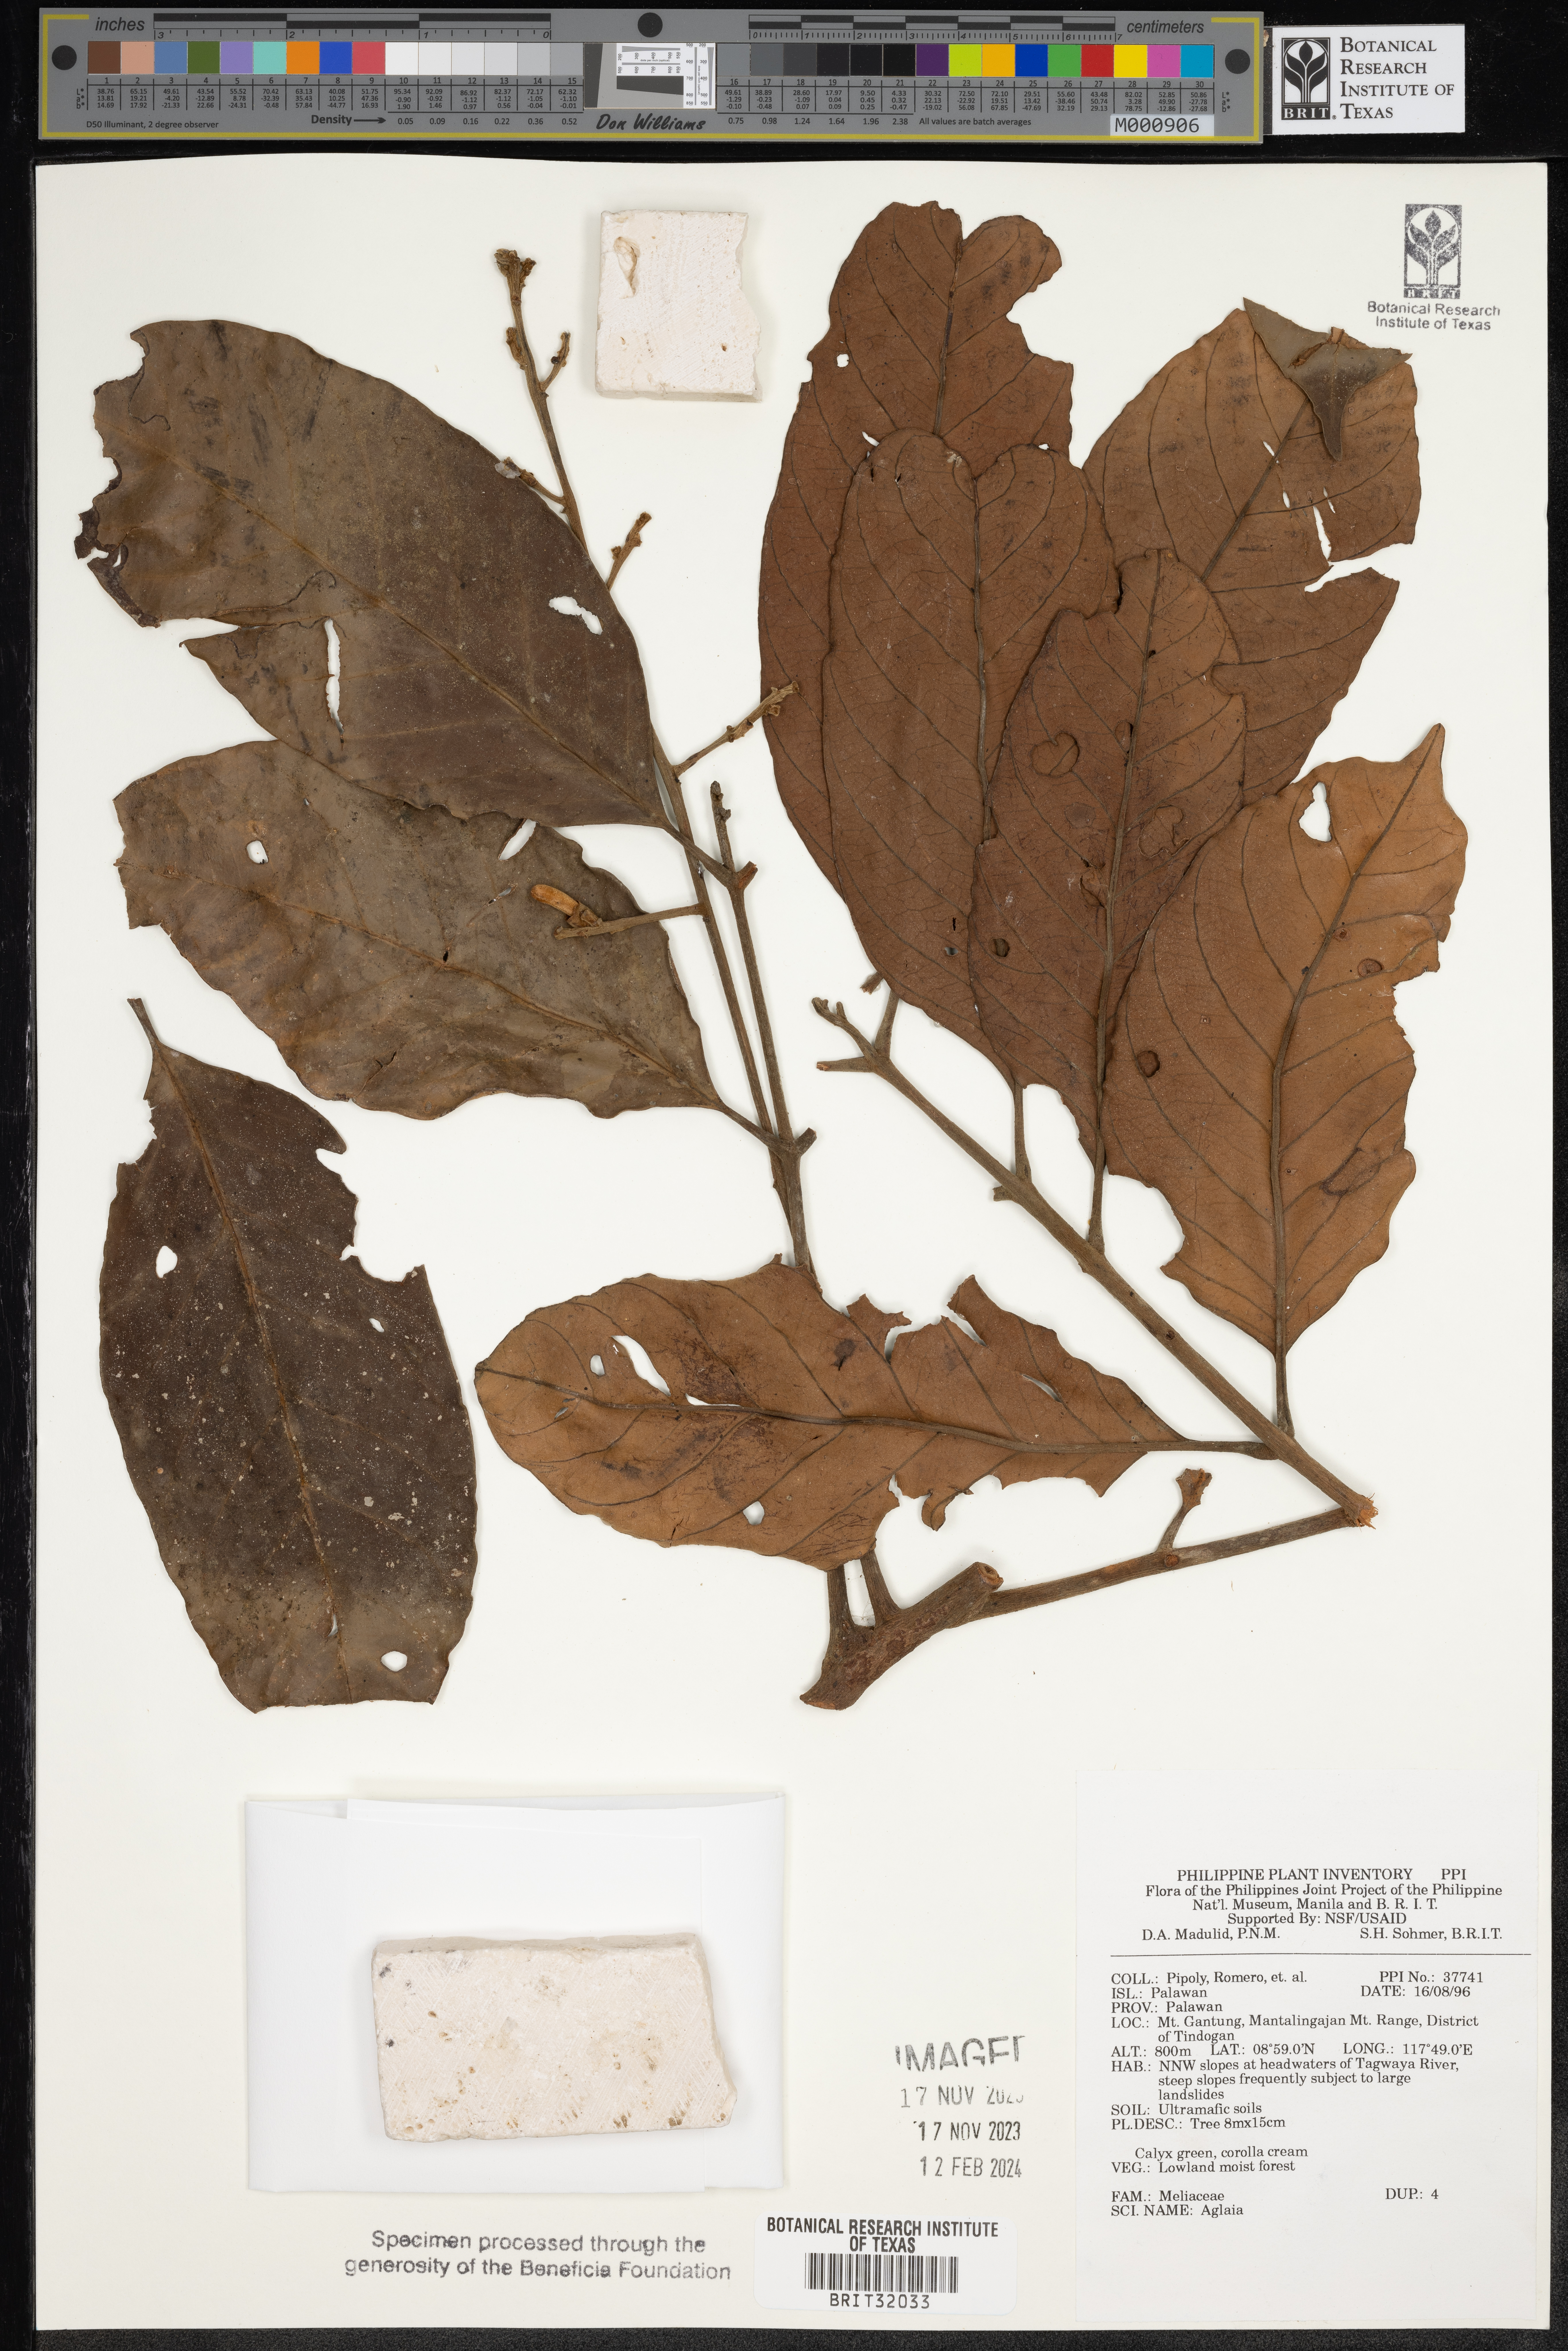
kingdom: Plantae
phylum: Tracheophyta
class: Magnoliopsida
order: Sapindales
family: Meliaceae
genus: Aglaia
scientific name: Aglaia
